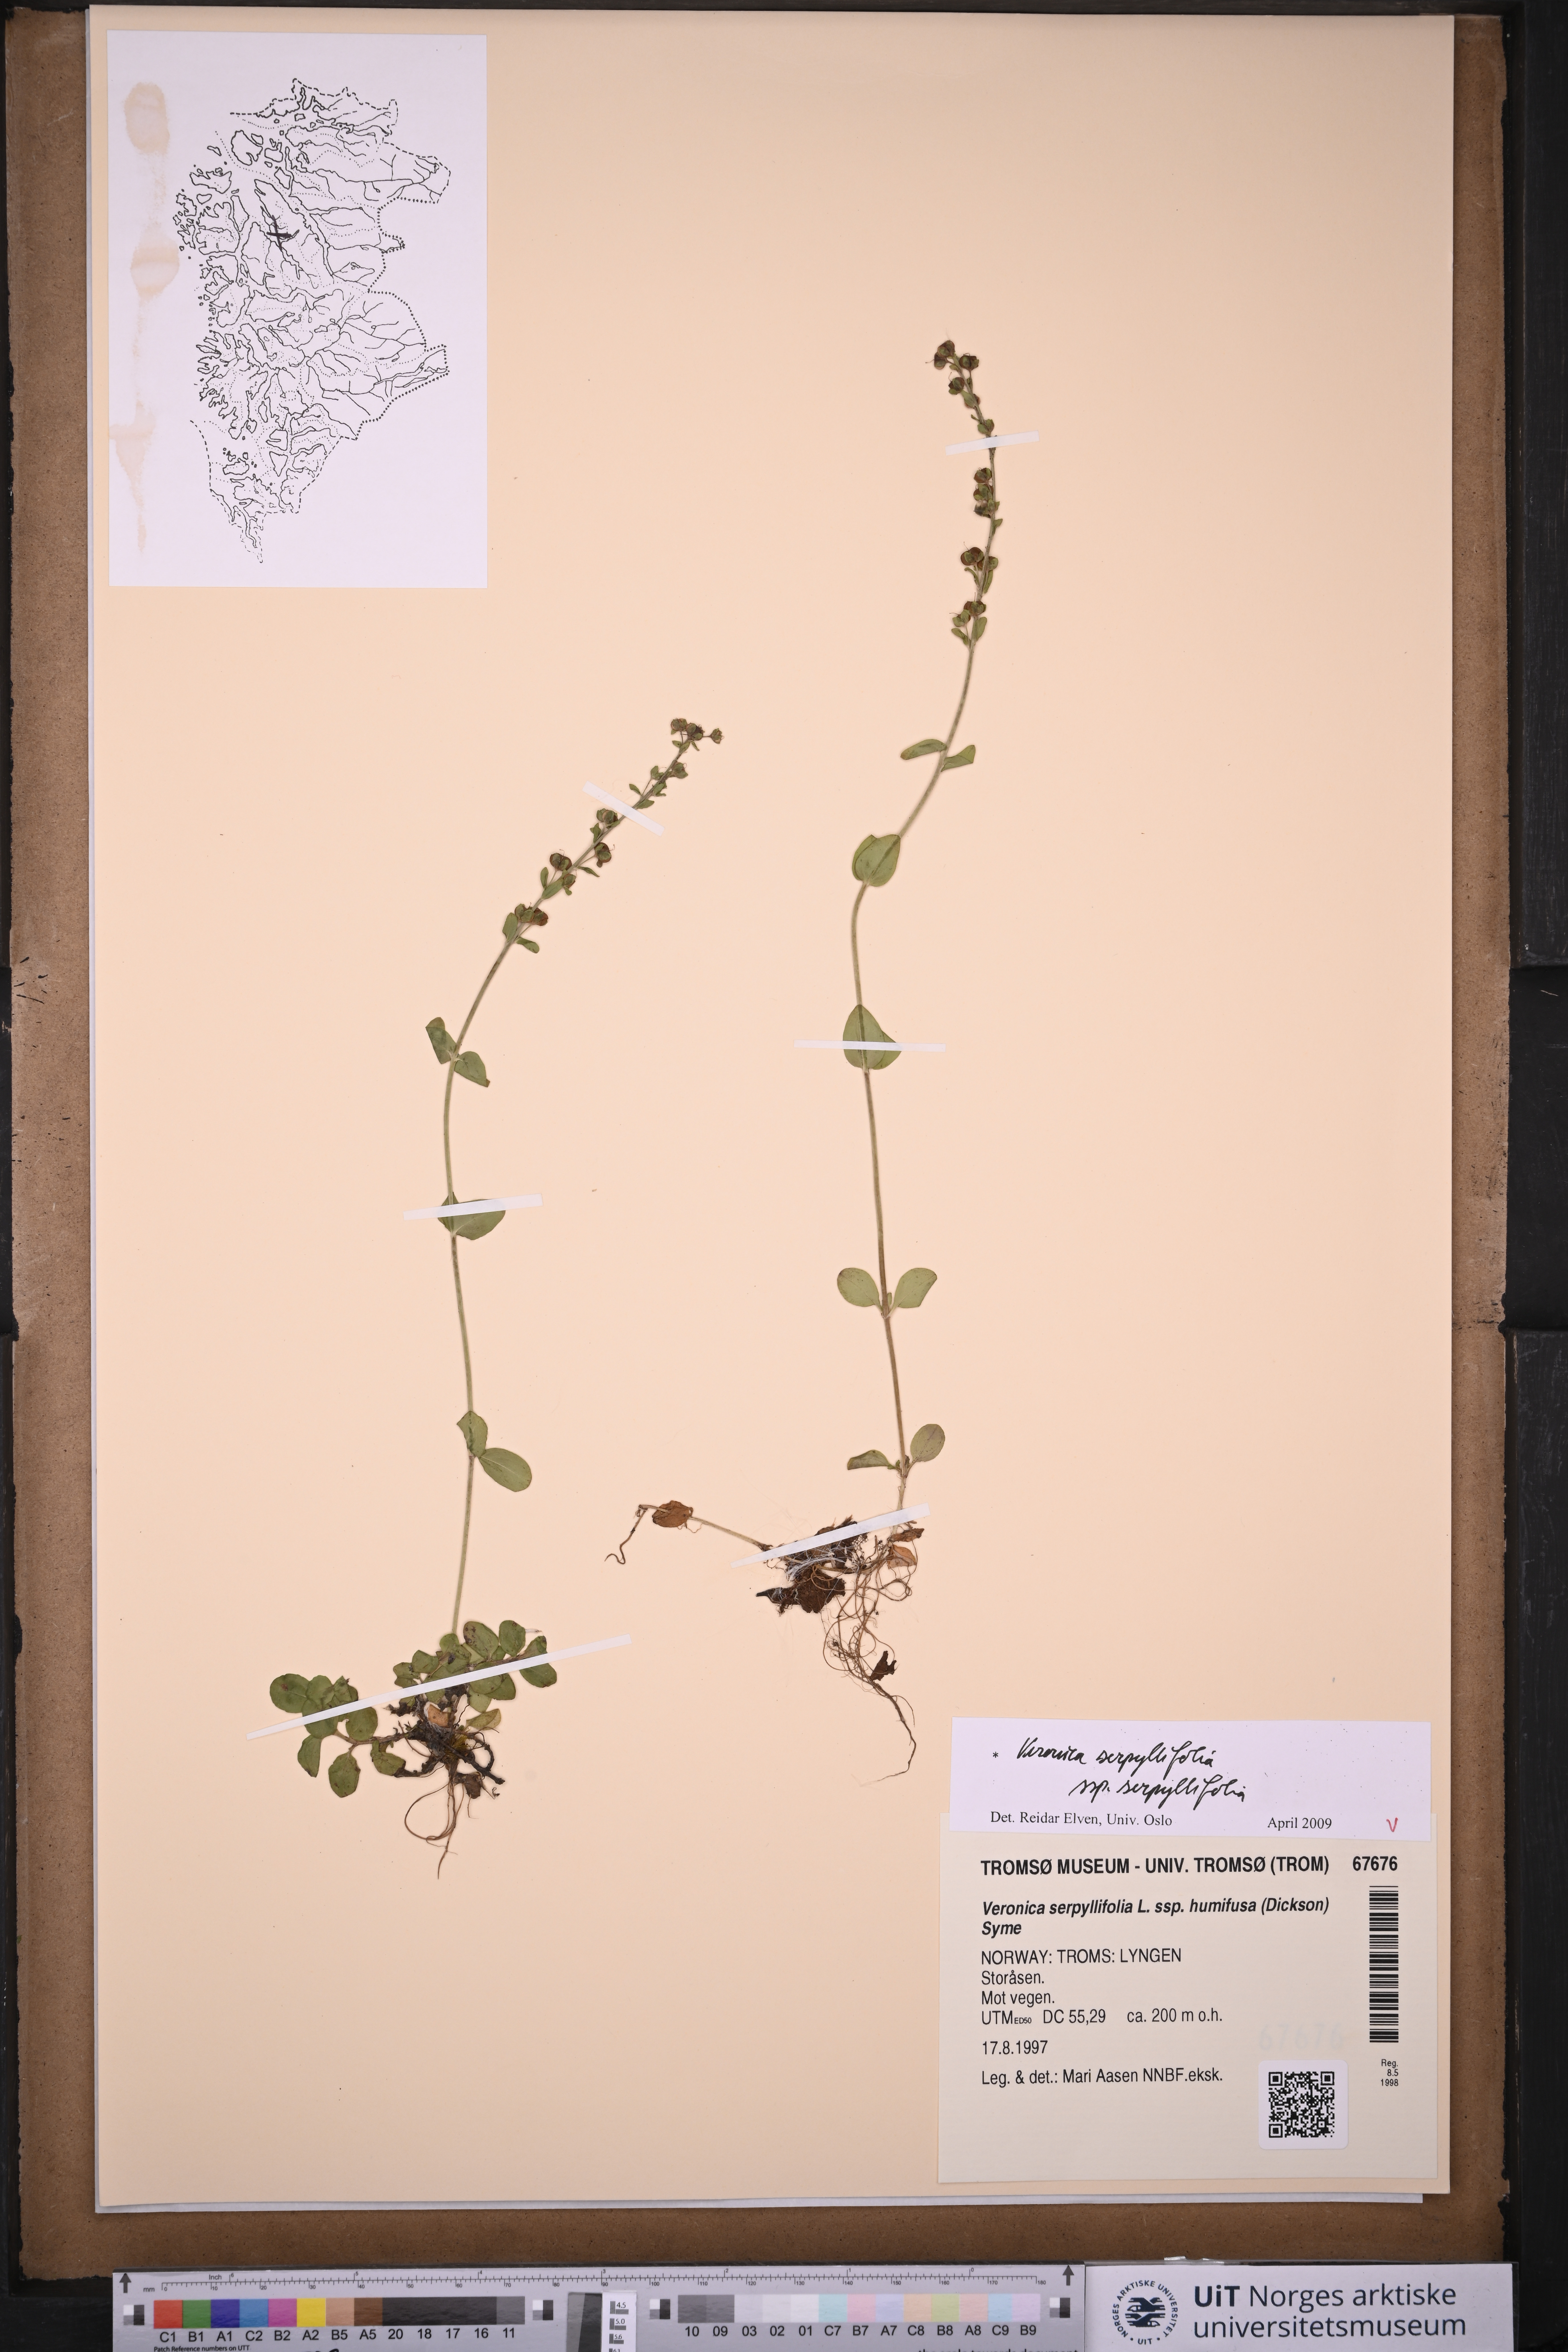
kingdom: Plantae
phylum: Tracheophyta
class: Magnoliopsida
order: Lamiales
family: Plantaginaceae
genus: Veronica
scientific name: Veronica serpyllifolia
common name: Thyme-leaved speedwell
